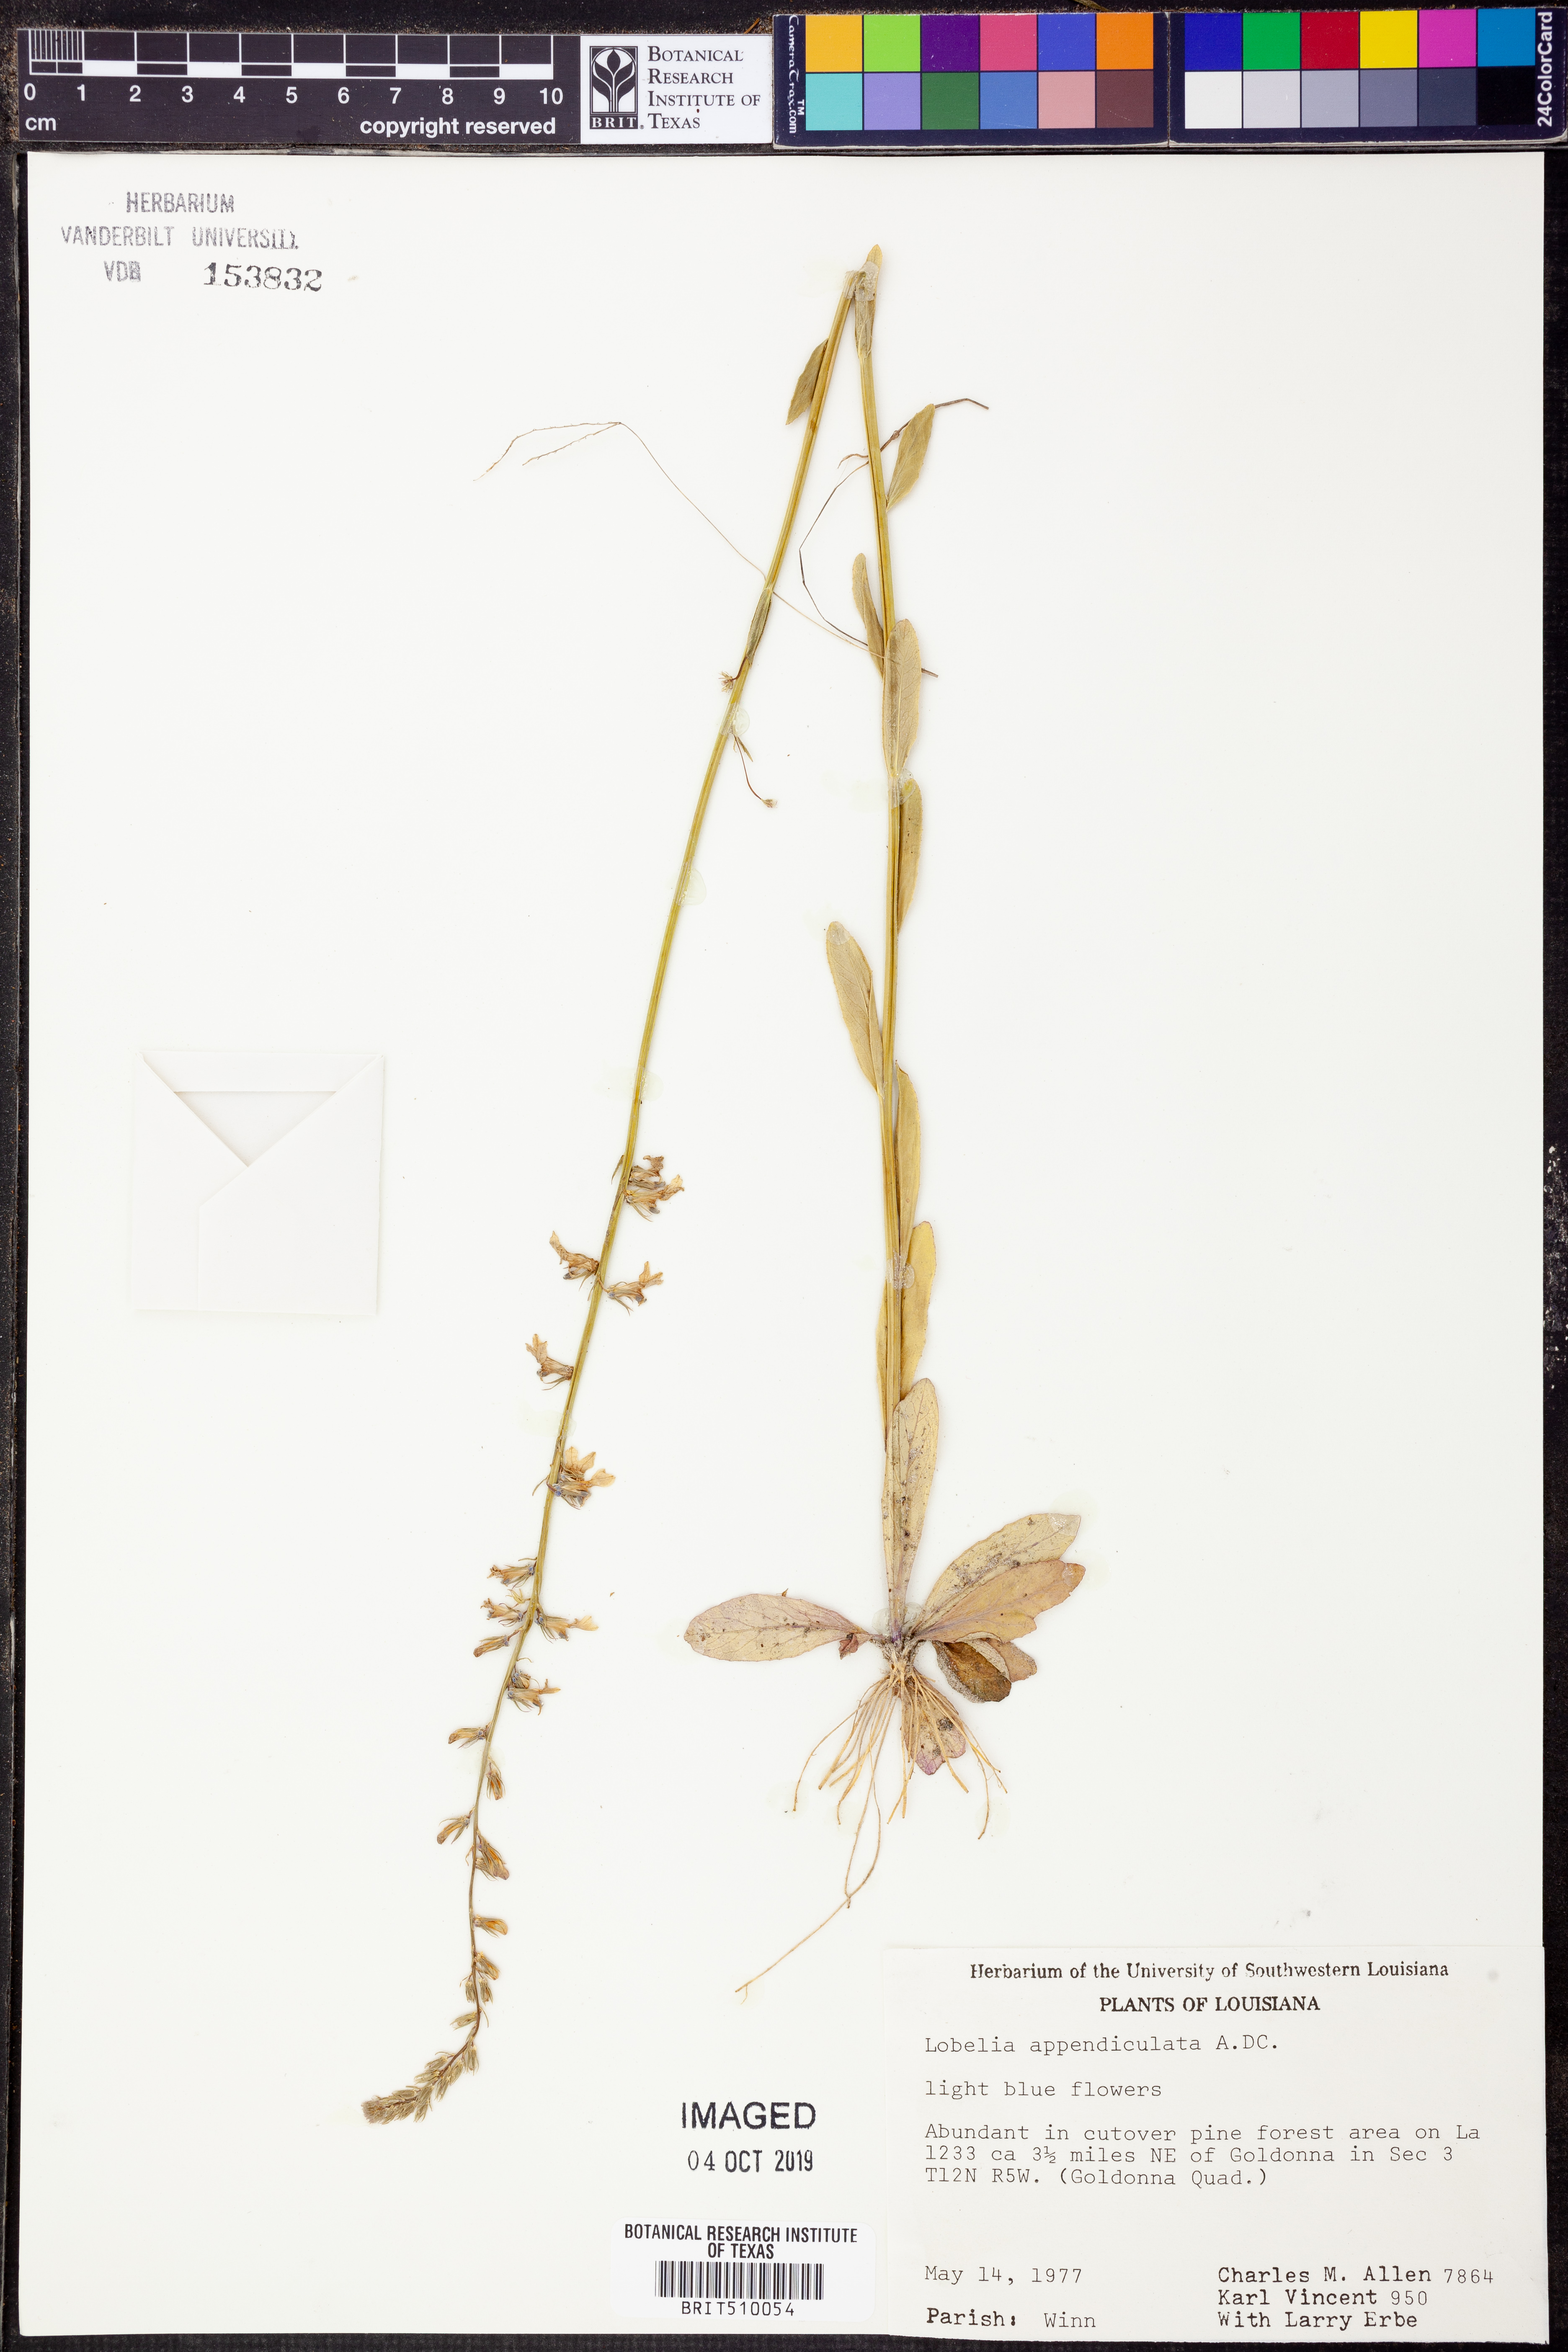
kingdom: Plantae
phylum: Tracheophyta
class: Magnoliopsida
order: Asterales
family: Campanulaceae
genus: Lobelia
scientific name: Lobelia appendiculata
